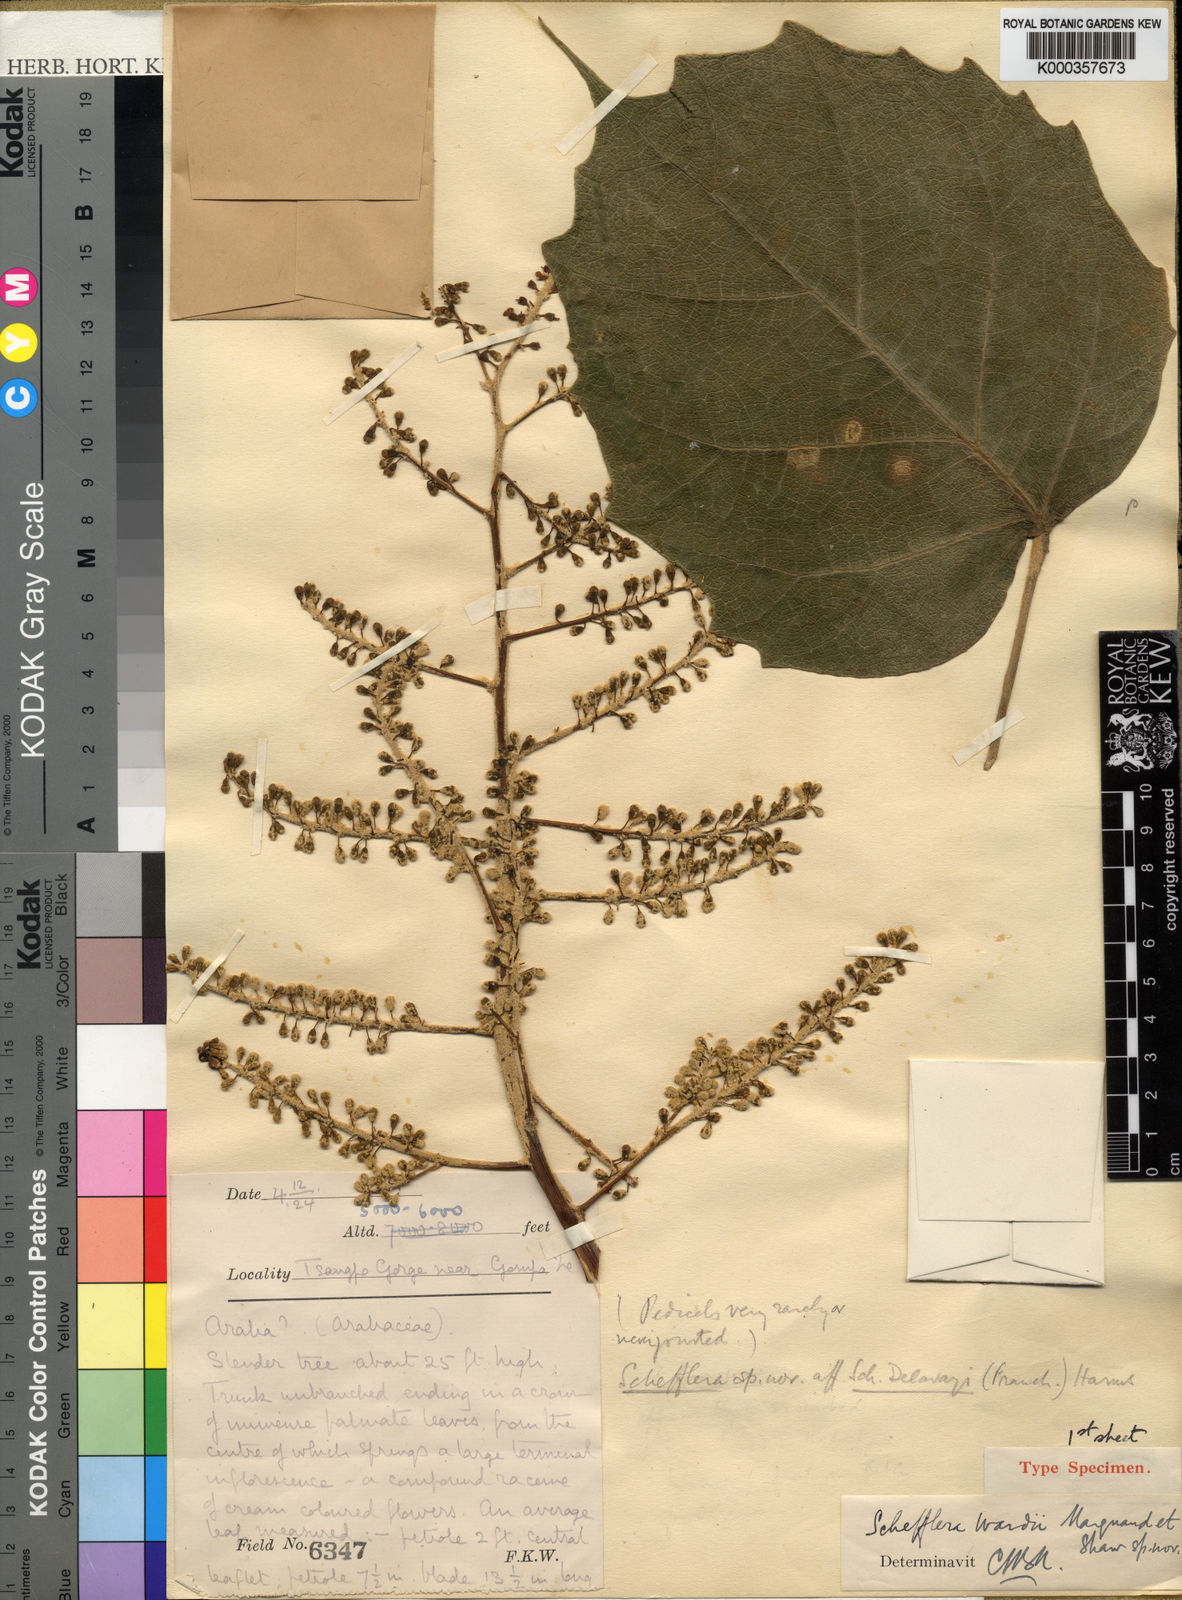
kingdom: Plantae
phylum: Tracheophyta
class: Magnoliopsida
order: Apiales
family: Araliaceae
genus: Heptapleurum
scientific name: Heptapleurum wardii
